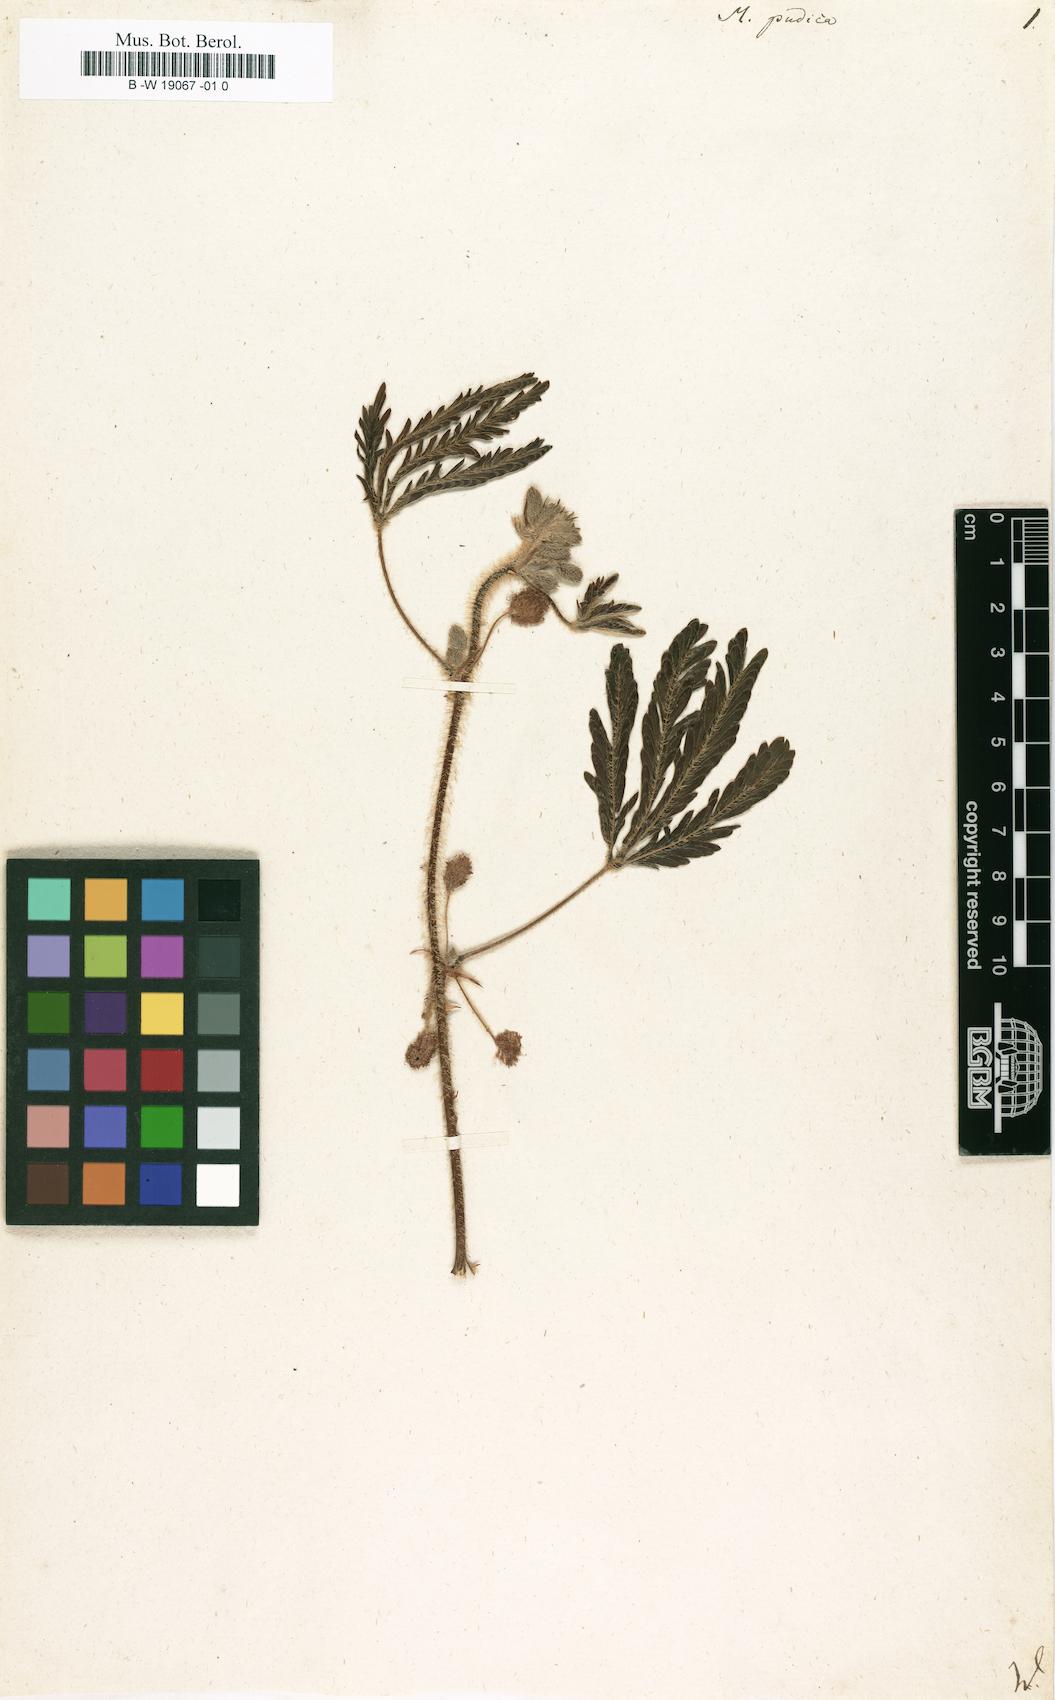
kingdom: Plantae
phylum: Tracheophyta
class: Magnoliopsida
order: Fabales
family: Fabaceae
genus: Mimosa
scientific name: Mimosa pudica
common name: Sensitive plant
